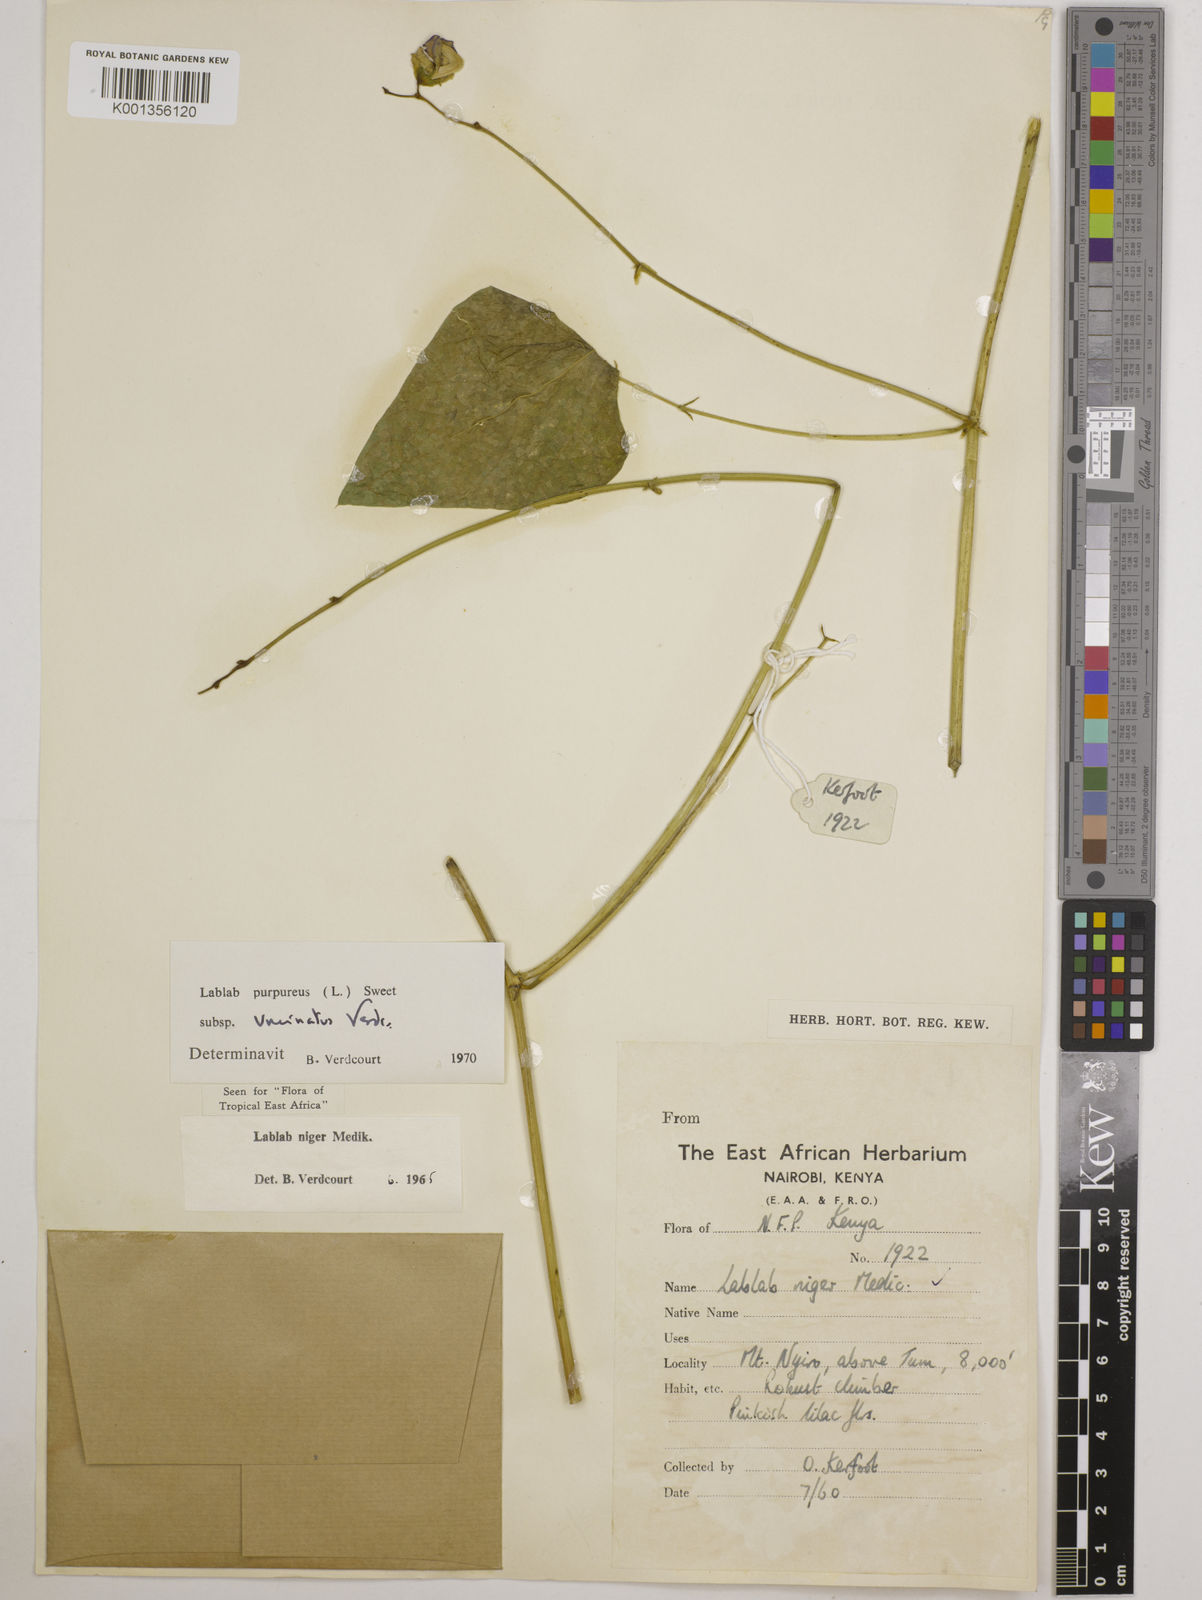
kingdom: Plantae
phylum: Tracheophyta
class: Magnoliopsida
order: Fabales
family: Fabaceae
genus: Lablab
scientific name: Lablab purpureus
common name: Lablab-bean
